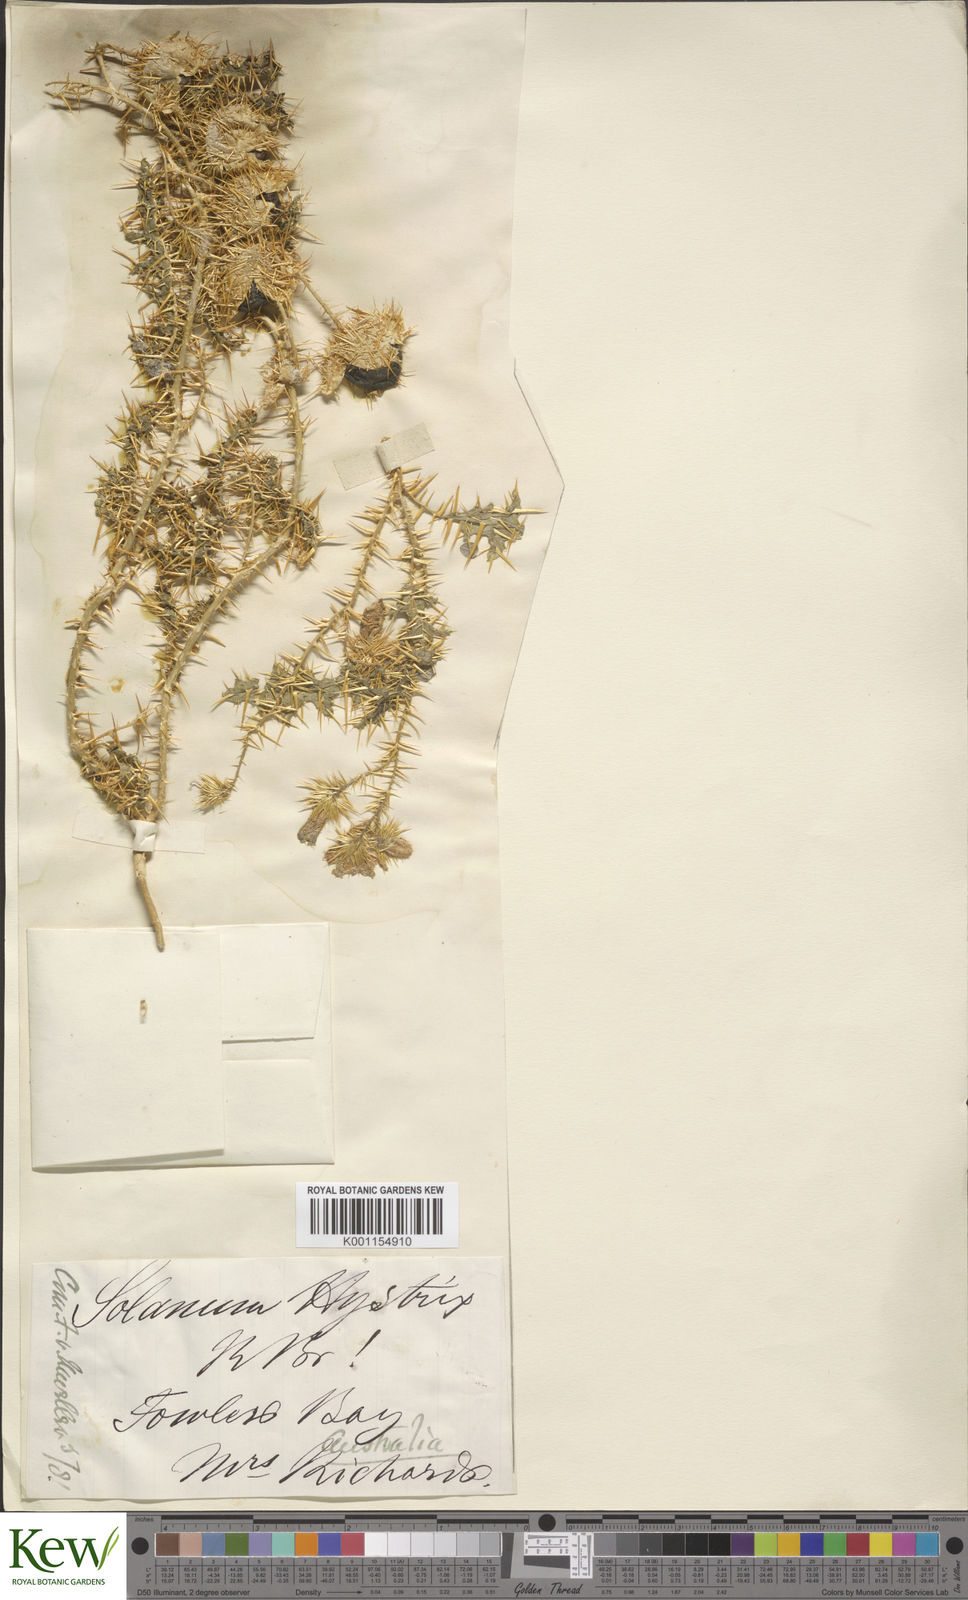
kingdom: Plantae
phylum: Tracheophyta
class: Magnoliopsida
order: Solanales
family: Solanaceae
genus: Solanum
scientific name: Solanum hystrix
